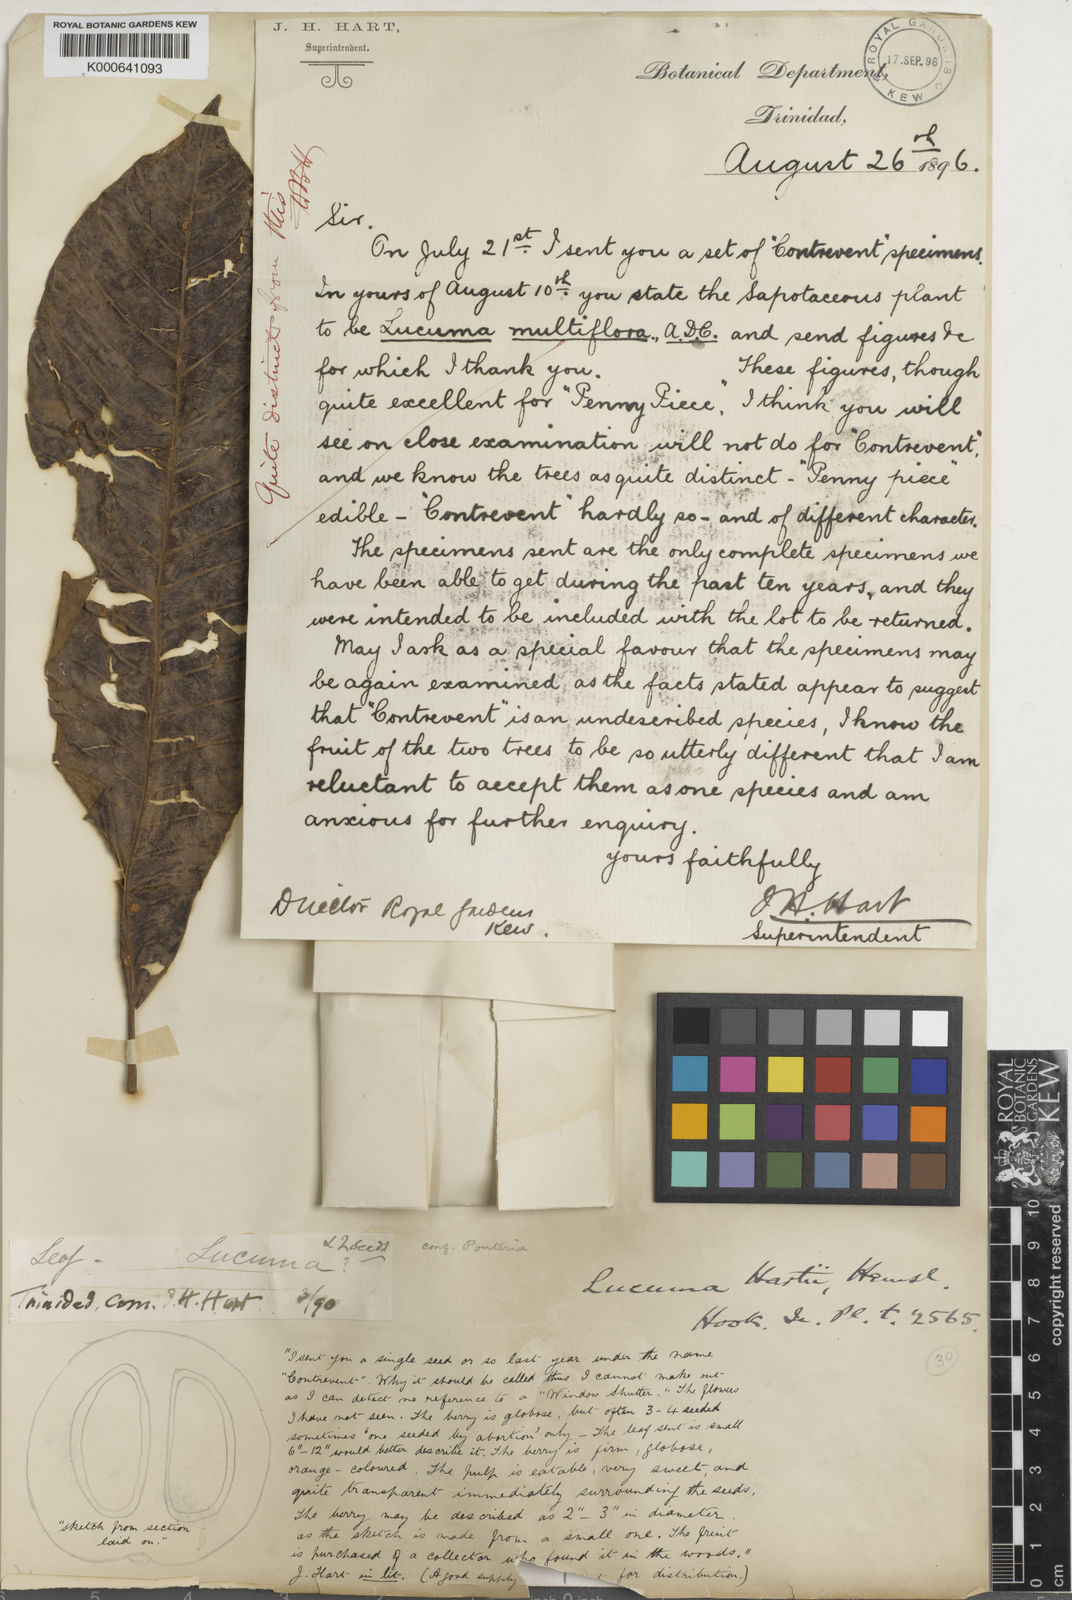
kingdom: Plantae
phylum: Tracheophyta
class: Magnoliopsida
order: Ericales
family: Sapotaceae
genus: Pouteria
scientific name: Pouteria guianensis
